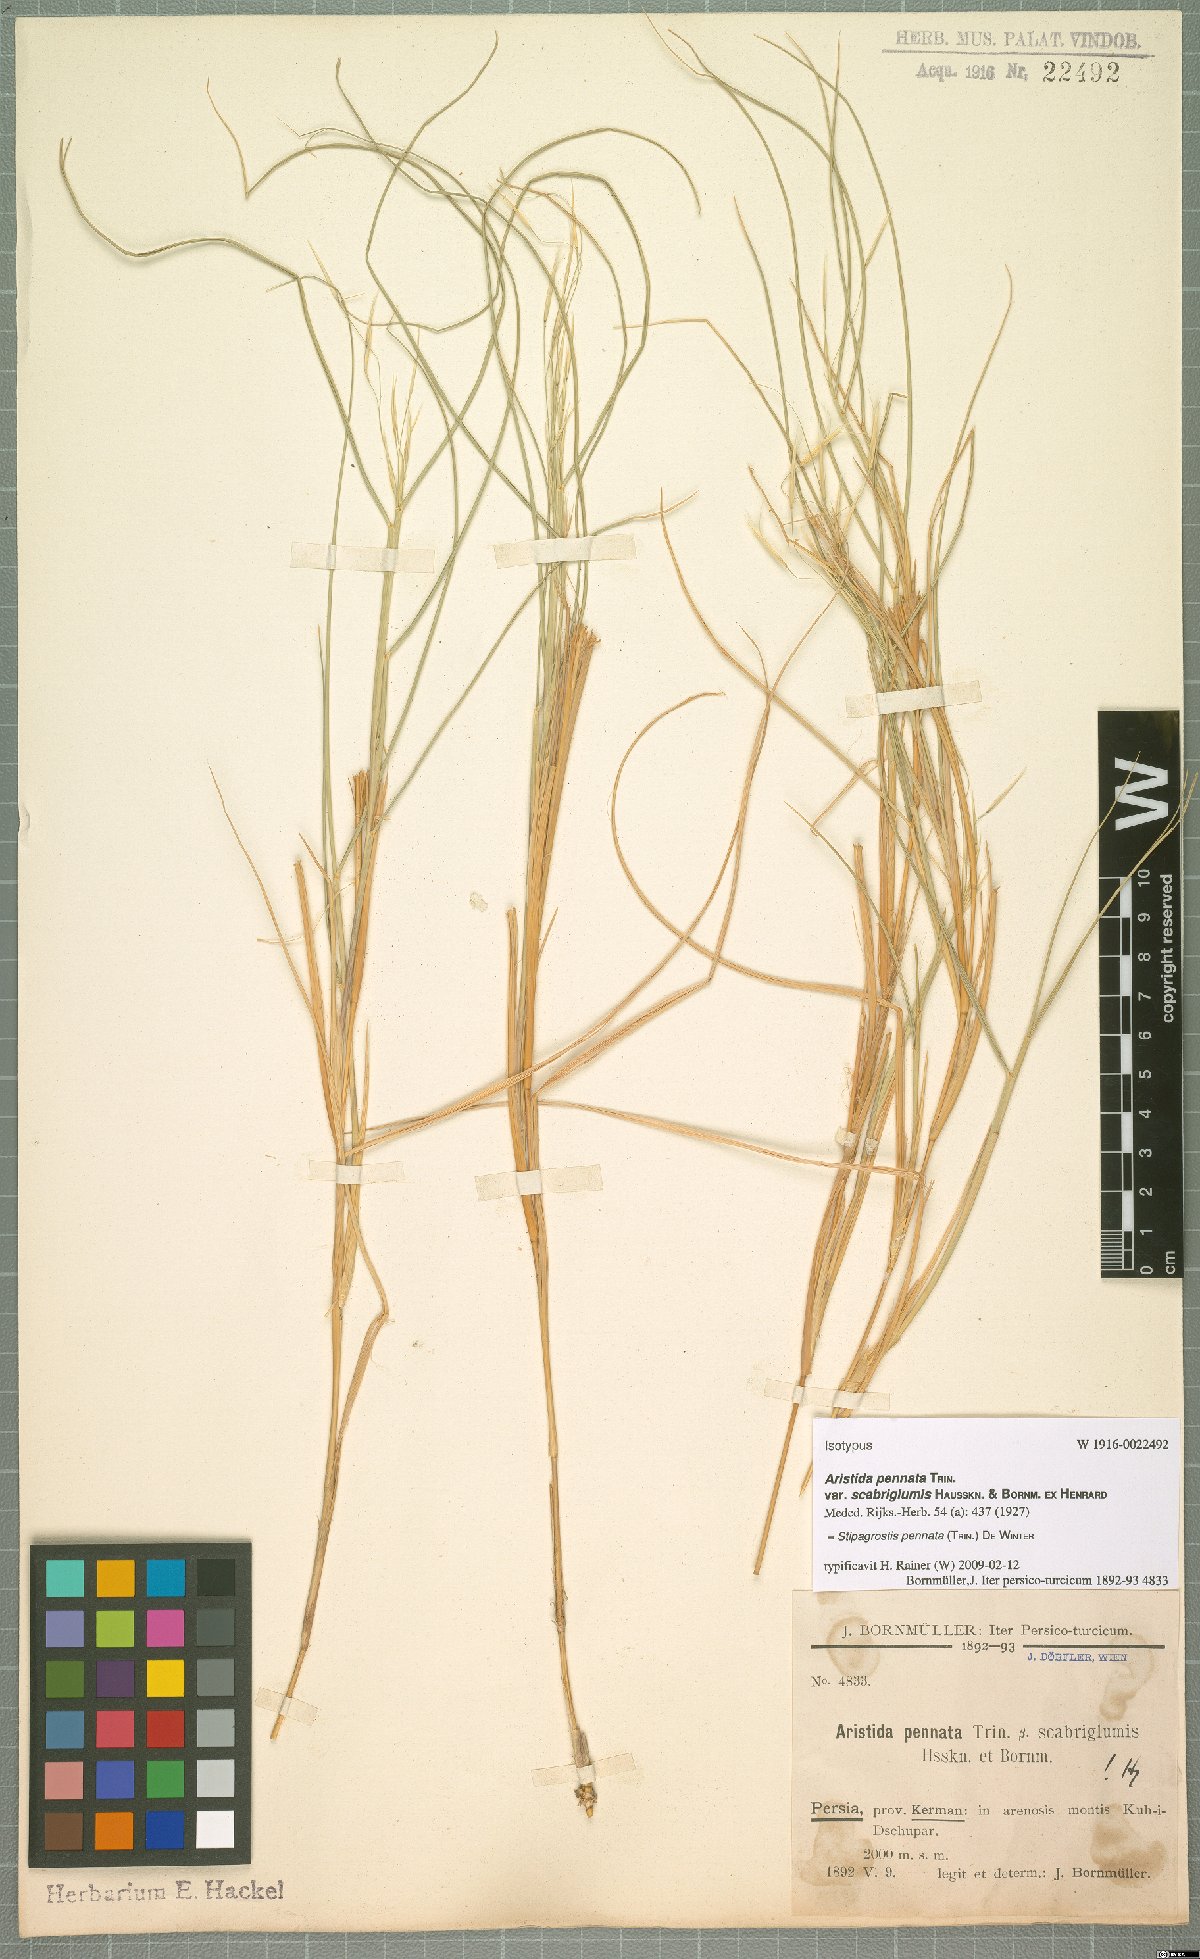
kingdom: Plantae
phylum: Tracheophyta
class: Liliopsida
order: Poales
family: Poaceae
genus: Stipagrostis
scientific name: Stipagrostis pennata
